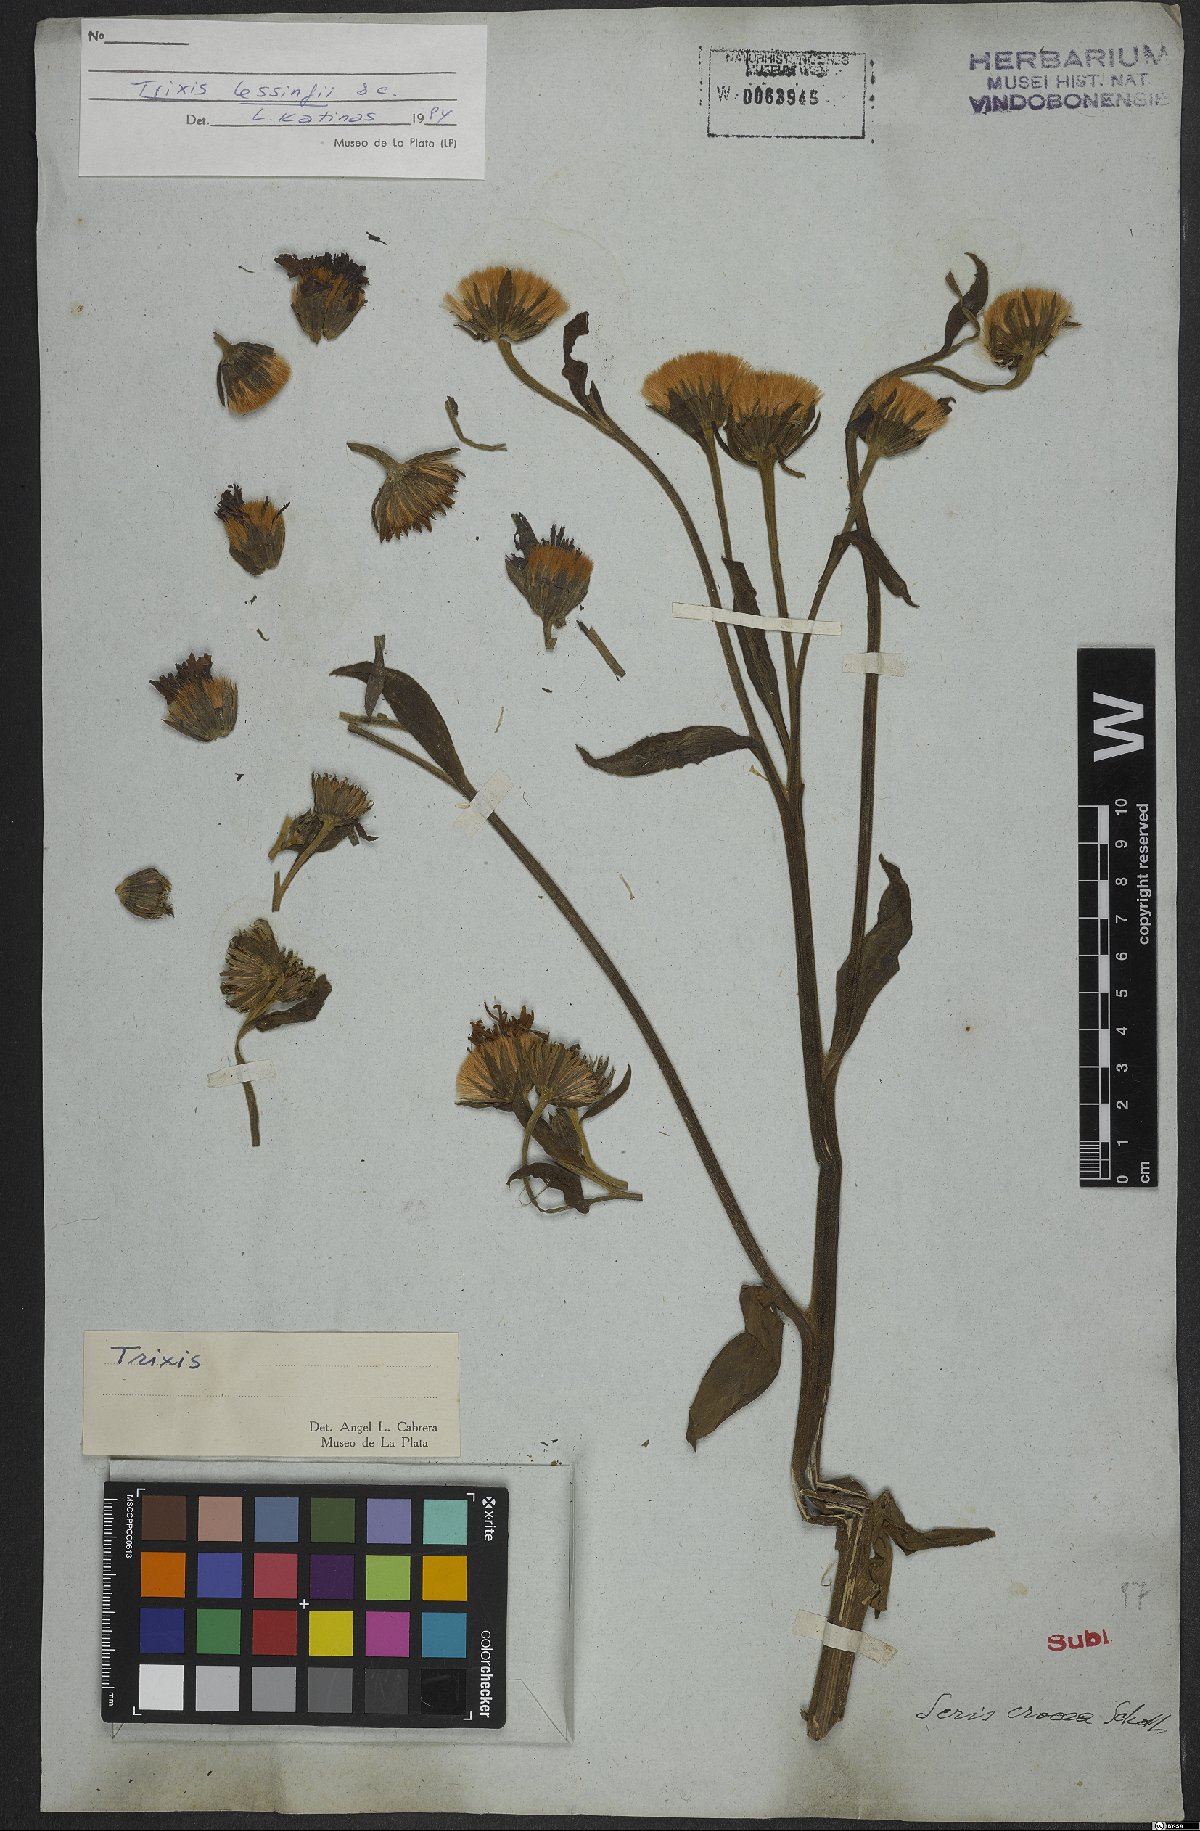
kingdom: Plantae
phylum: Tracheophyta
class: Magnoliopsida
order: Asterales
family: Asteraceae
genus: Trixis
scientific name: Trixis
